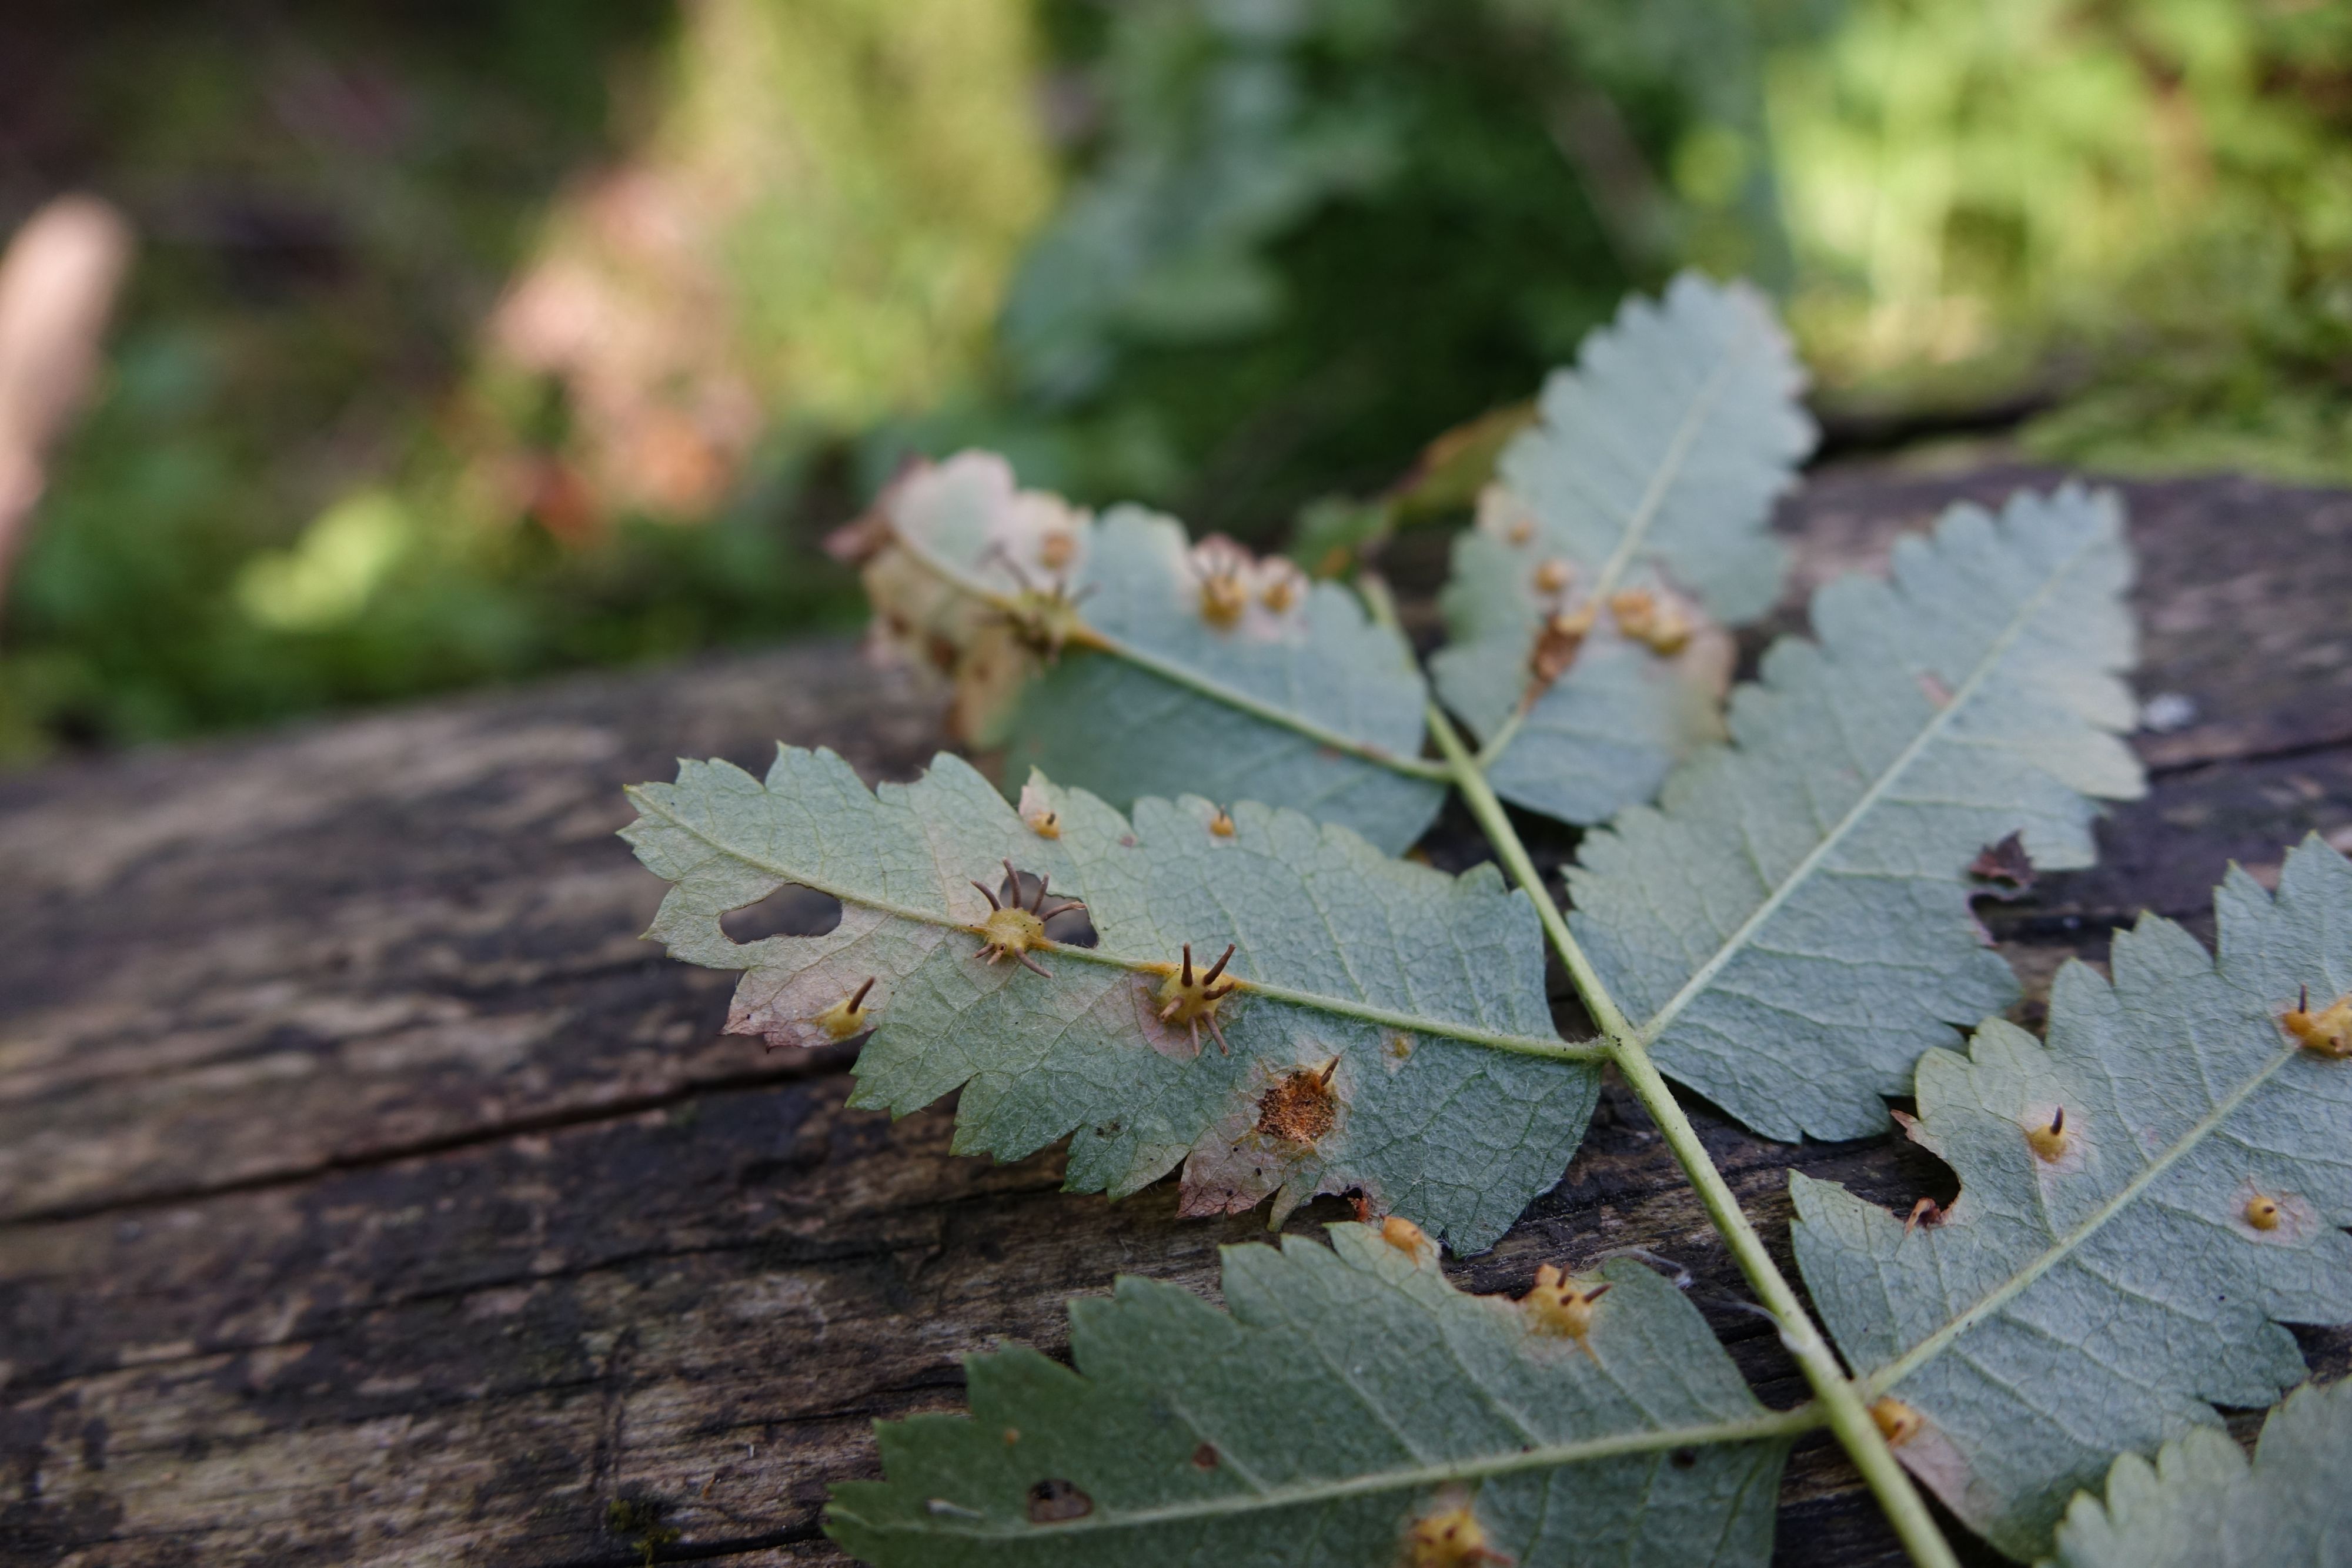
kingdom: Fungi
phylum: Basidiomycota
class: Pucciniomycetes
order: Pucciniales
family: Gymnosporangiaceae
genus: Gymnosporangium
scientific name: Gymnosporangium cornutum
